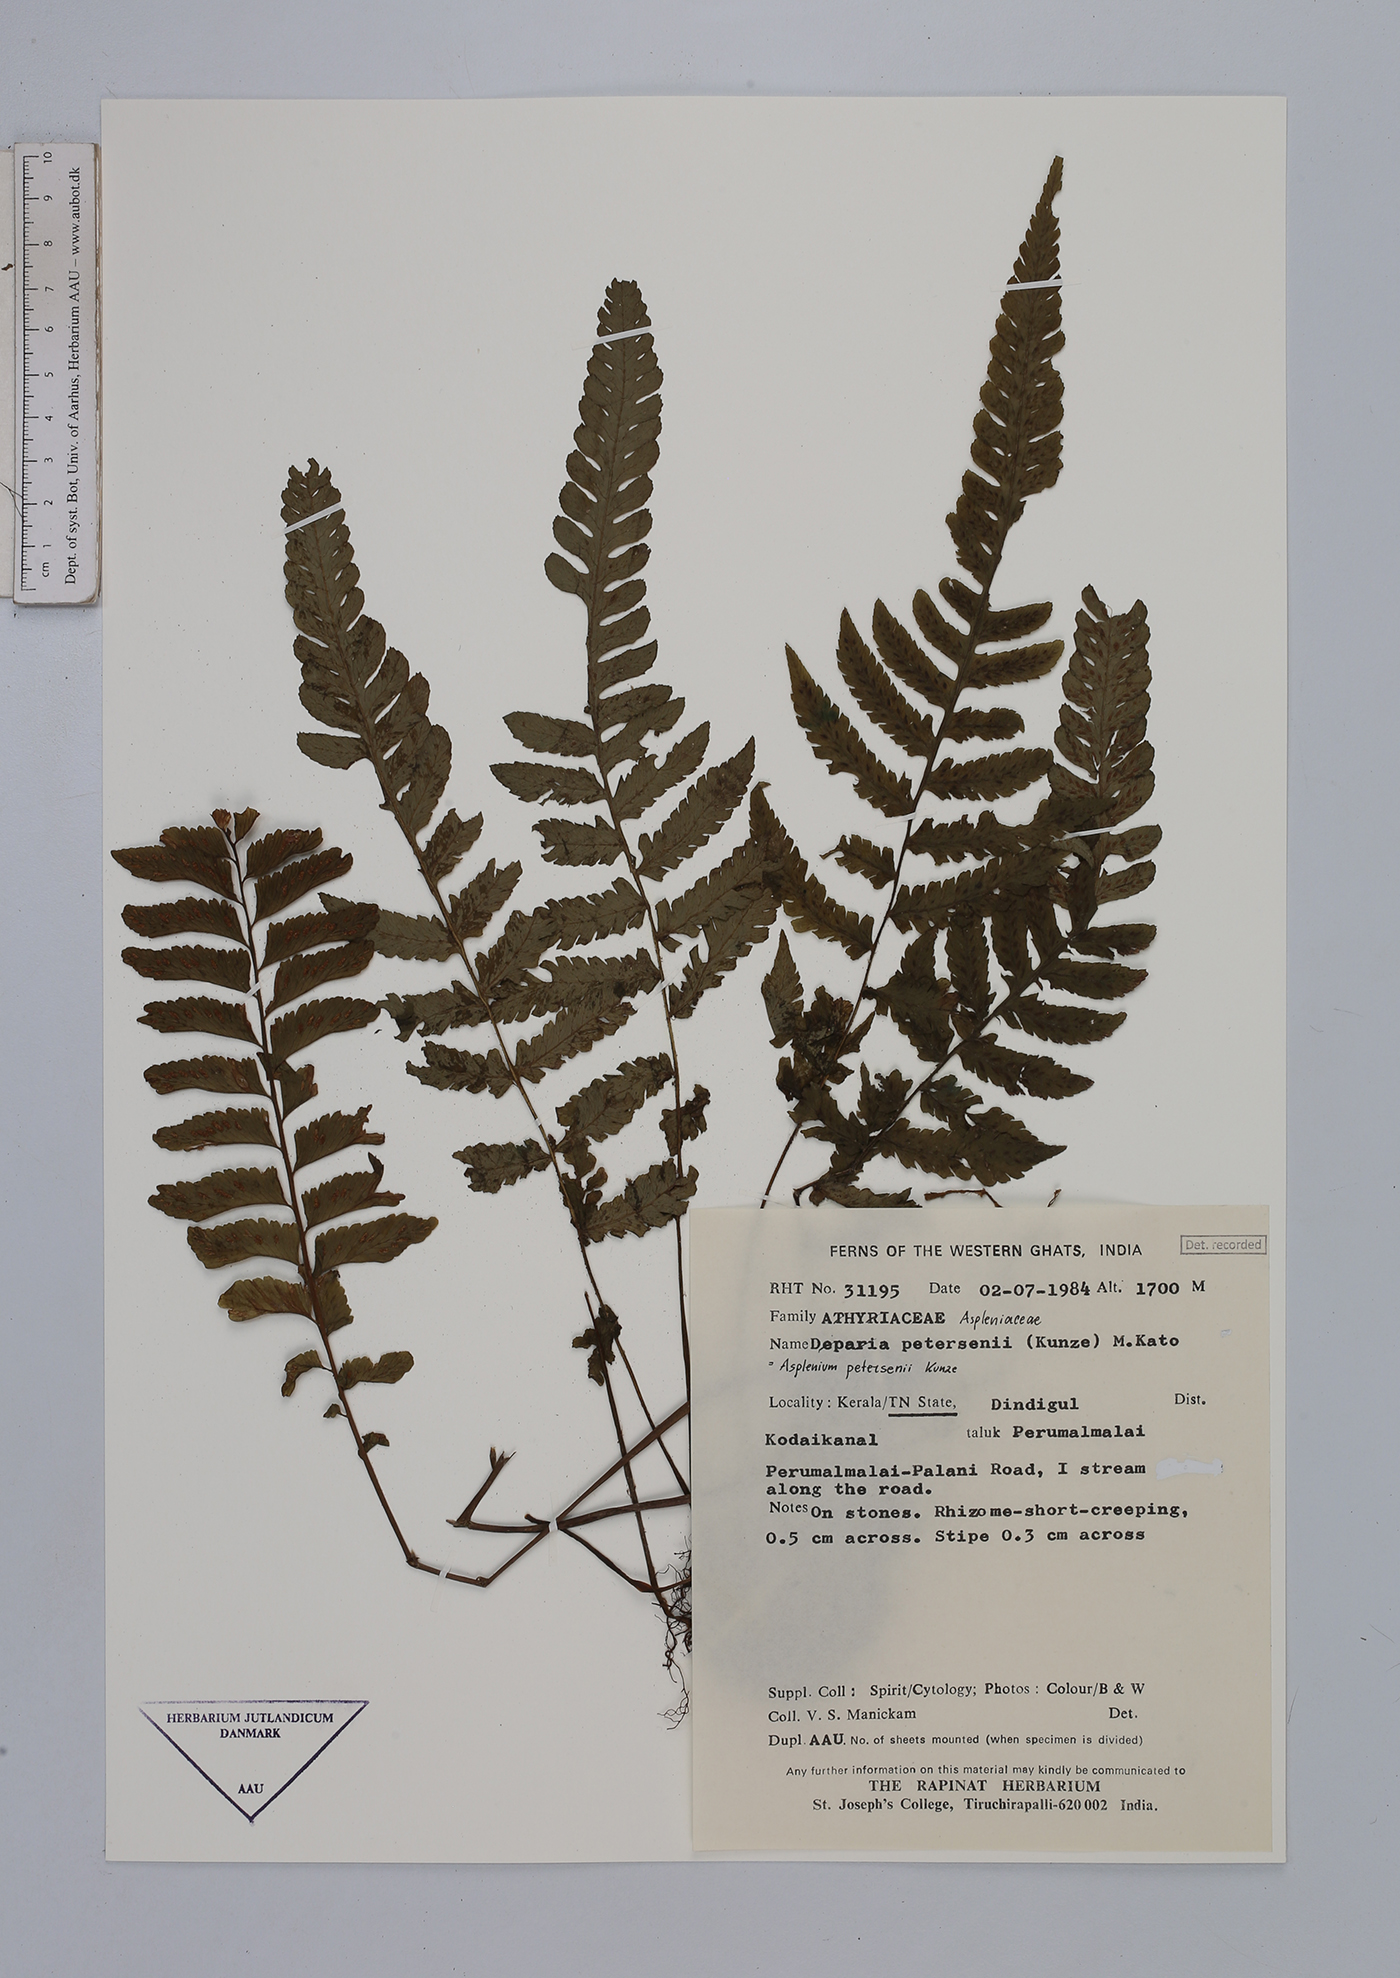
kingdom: Plantae
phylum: Tracheophyta
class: Polypodiopsida
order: Polypodiales
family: Athyriaceae
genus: Deparia
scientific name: Deparia petersenii
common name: Japanese false spleenwort
